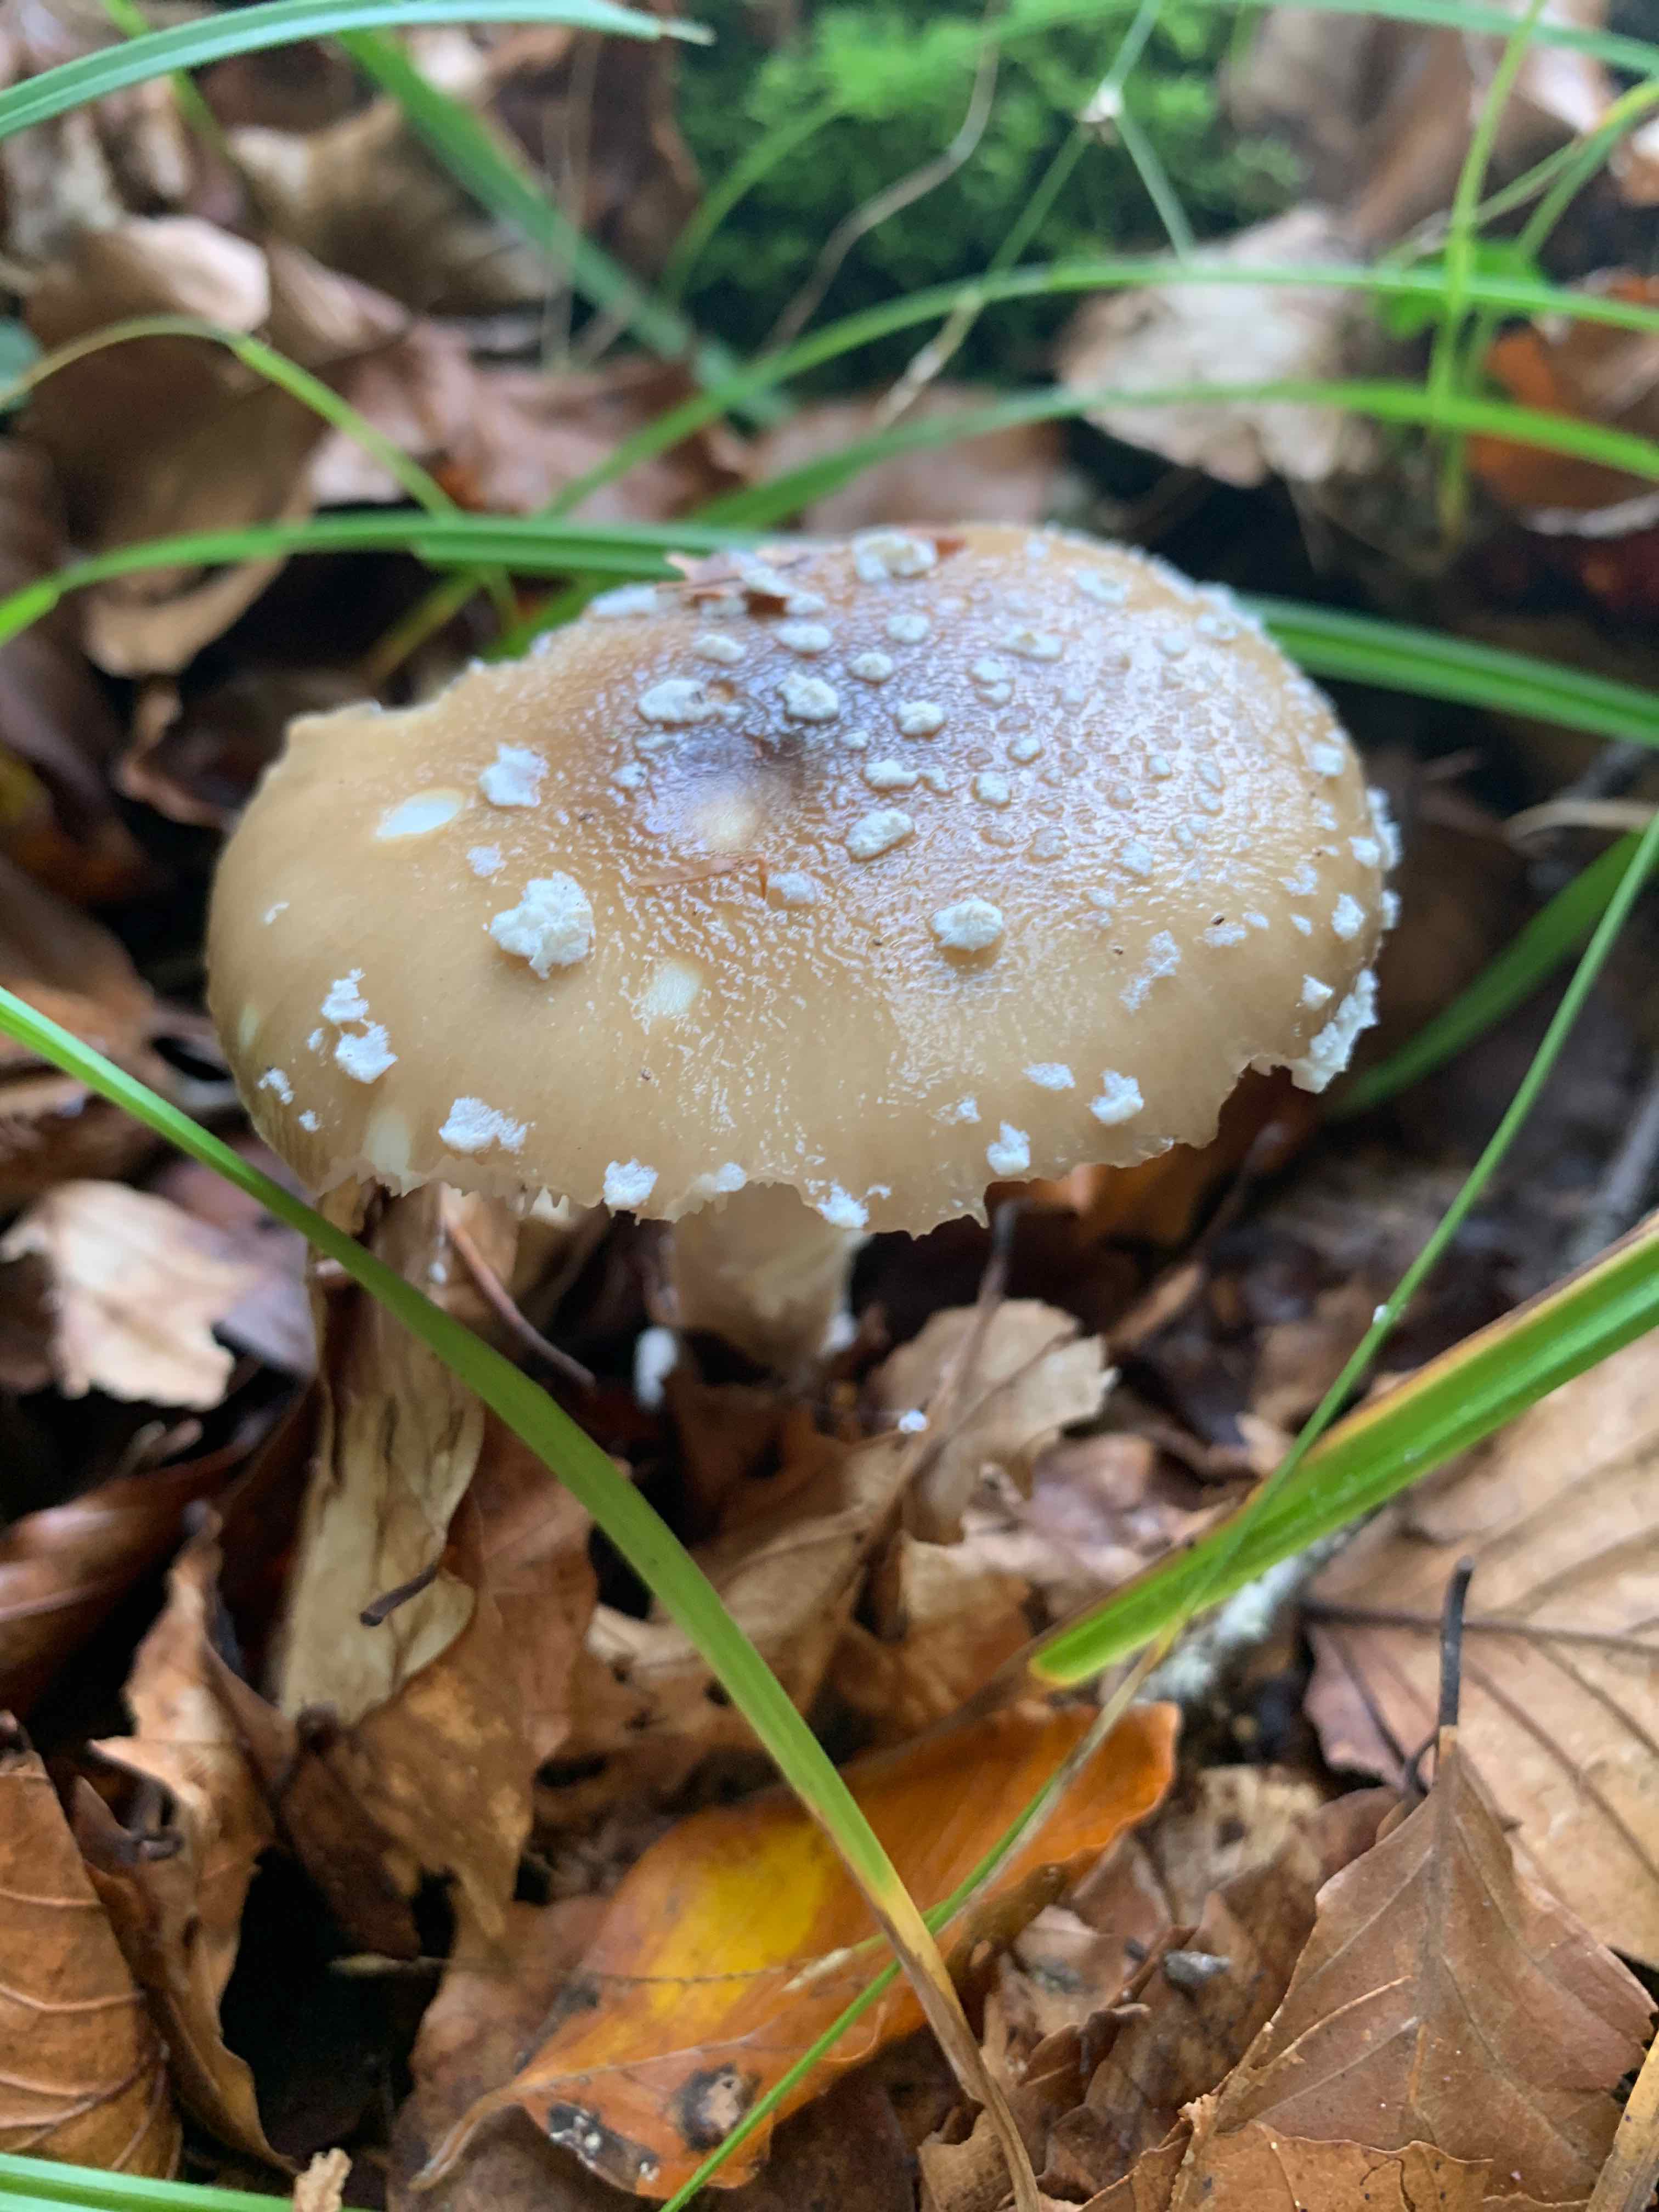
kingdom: Fungi
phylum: Basidiomycota
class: Agaricomycetes
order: Agaricales
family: Amanitaceae
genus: Amanita
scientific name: Amanita pantherina
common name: panter-fluesvamp
